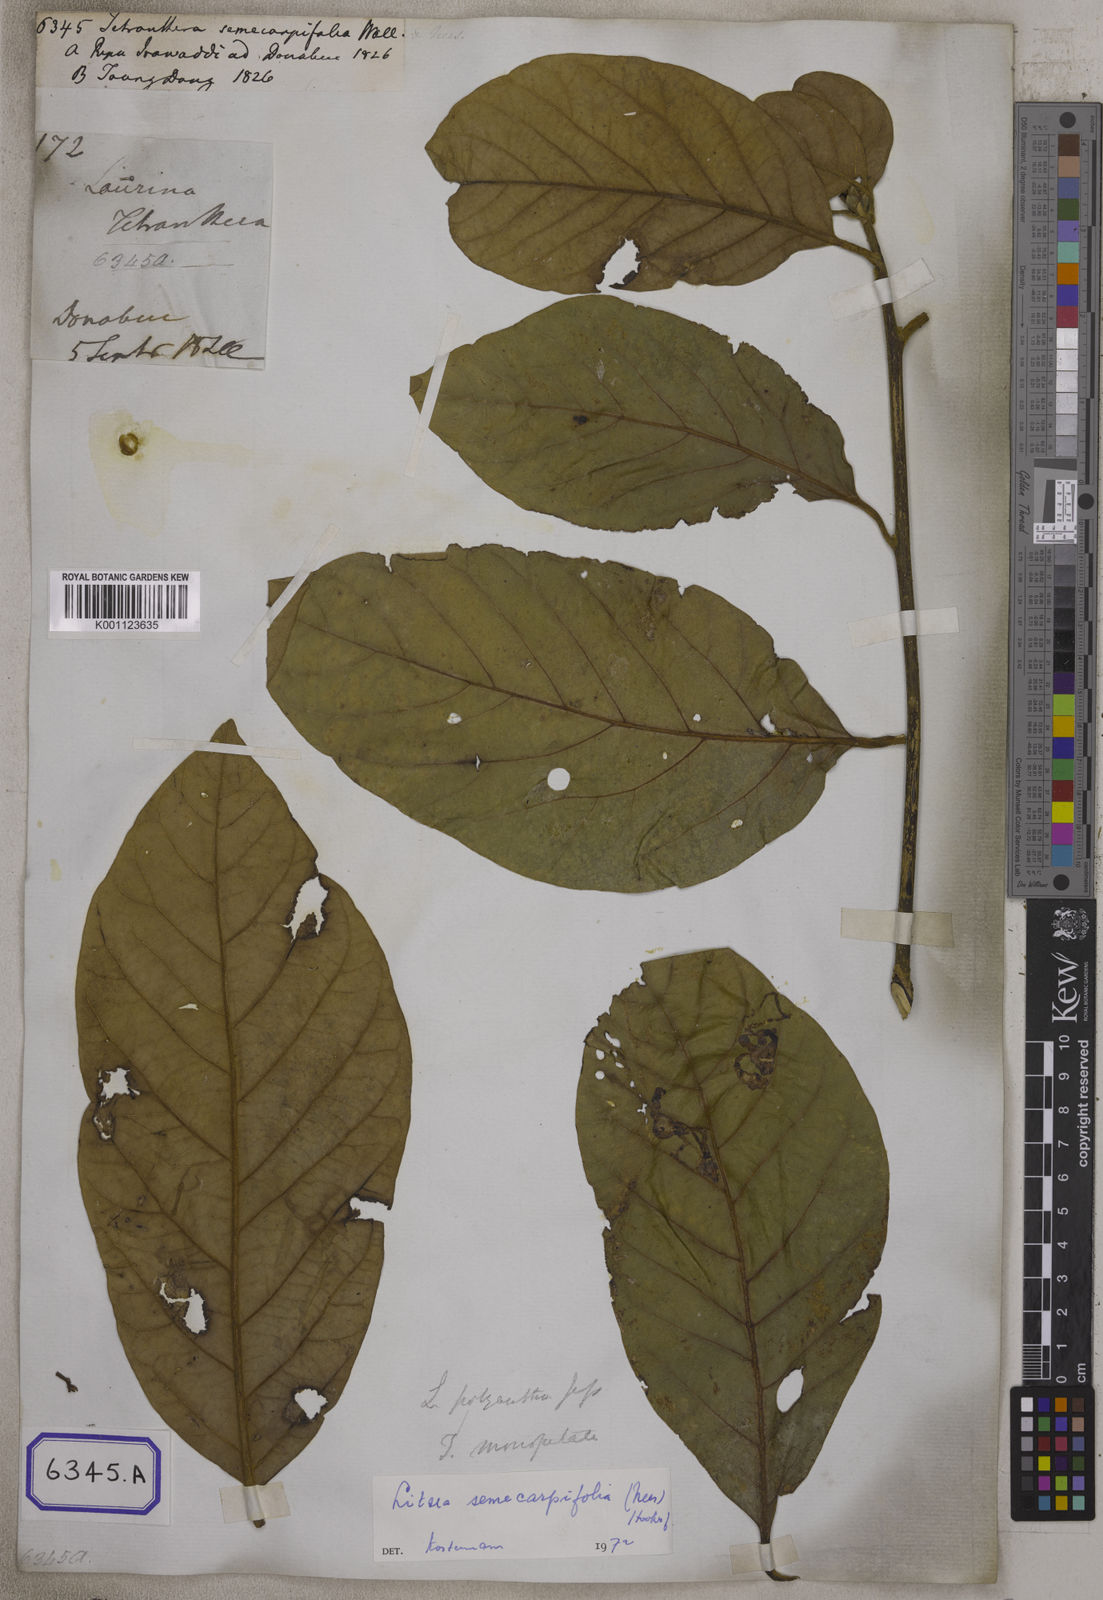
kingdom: Plantae
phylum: Tracheophyta
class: Magnoliopsida
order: Laurales
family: Lauraceae
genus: Litsea
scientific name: Litsea
